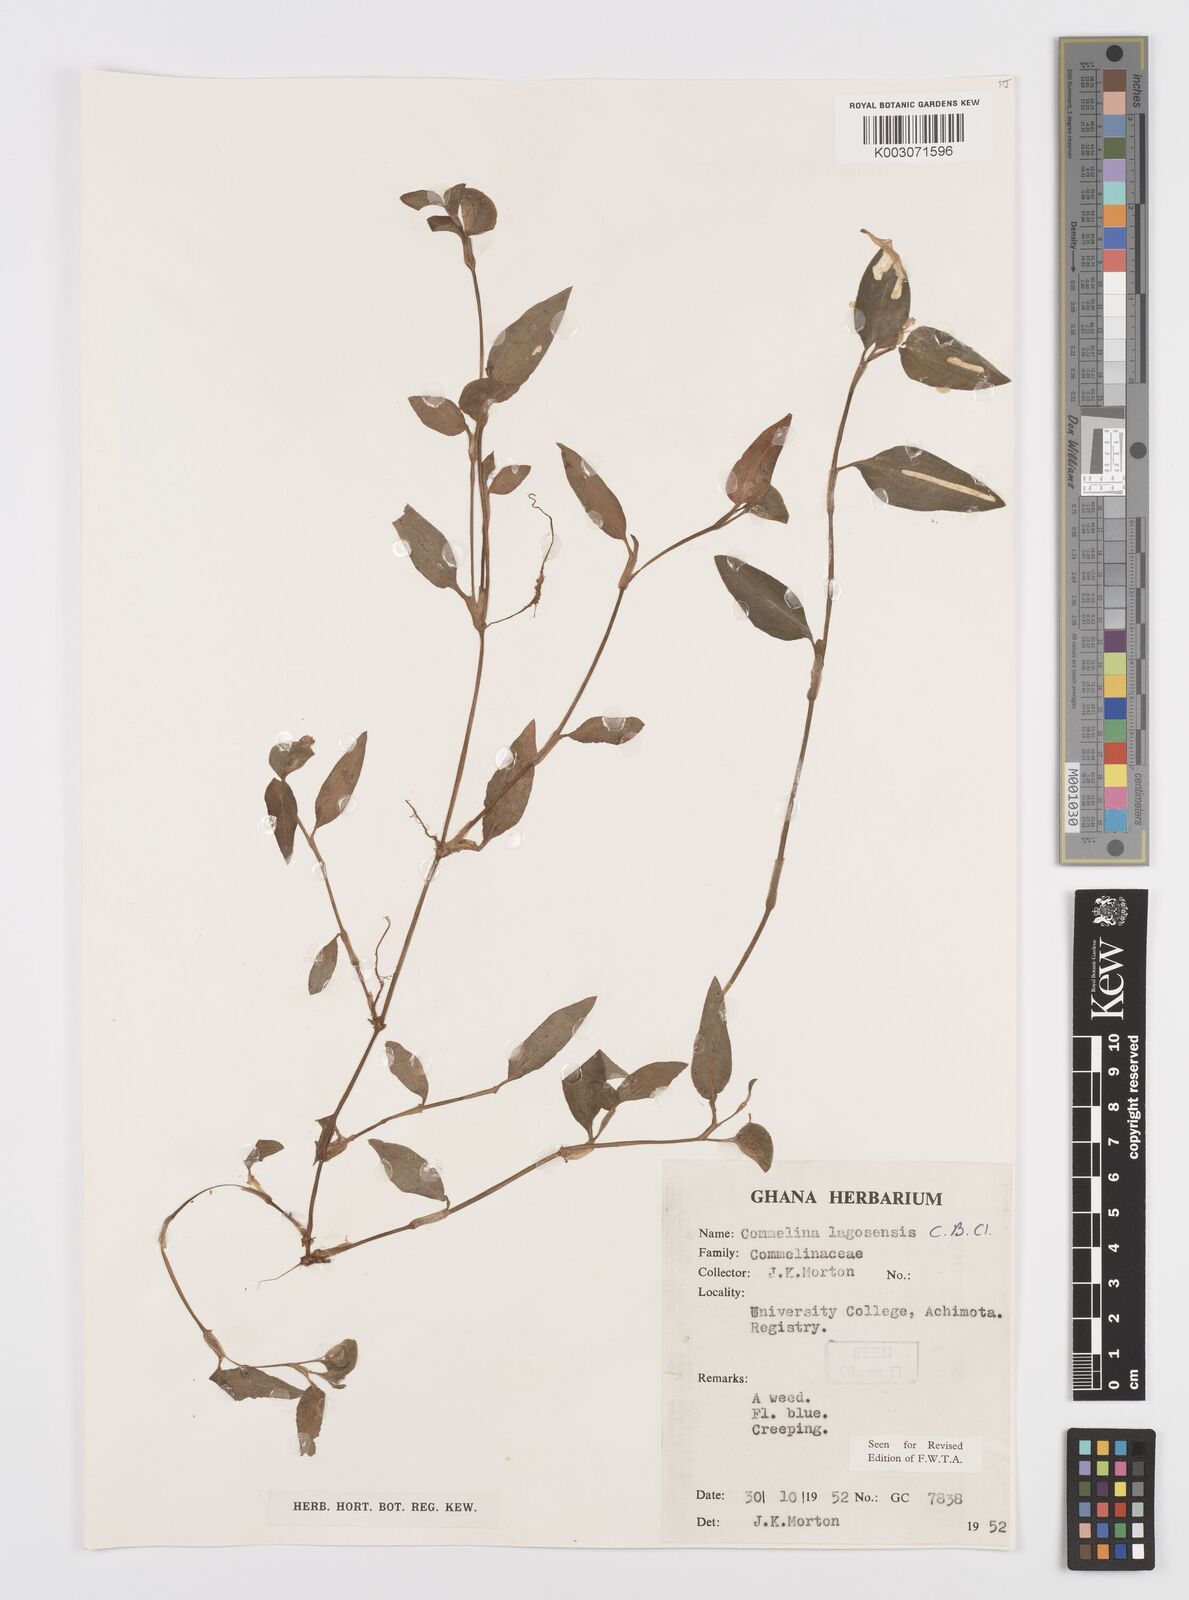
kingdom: Plantae
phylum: Tracheophyta
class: Liliopsida
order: Commelinales
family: Commelinaceae
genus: Commelina
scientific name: Commelina bracteosa
